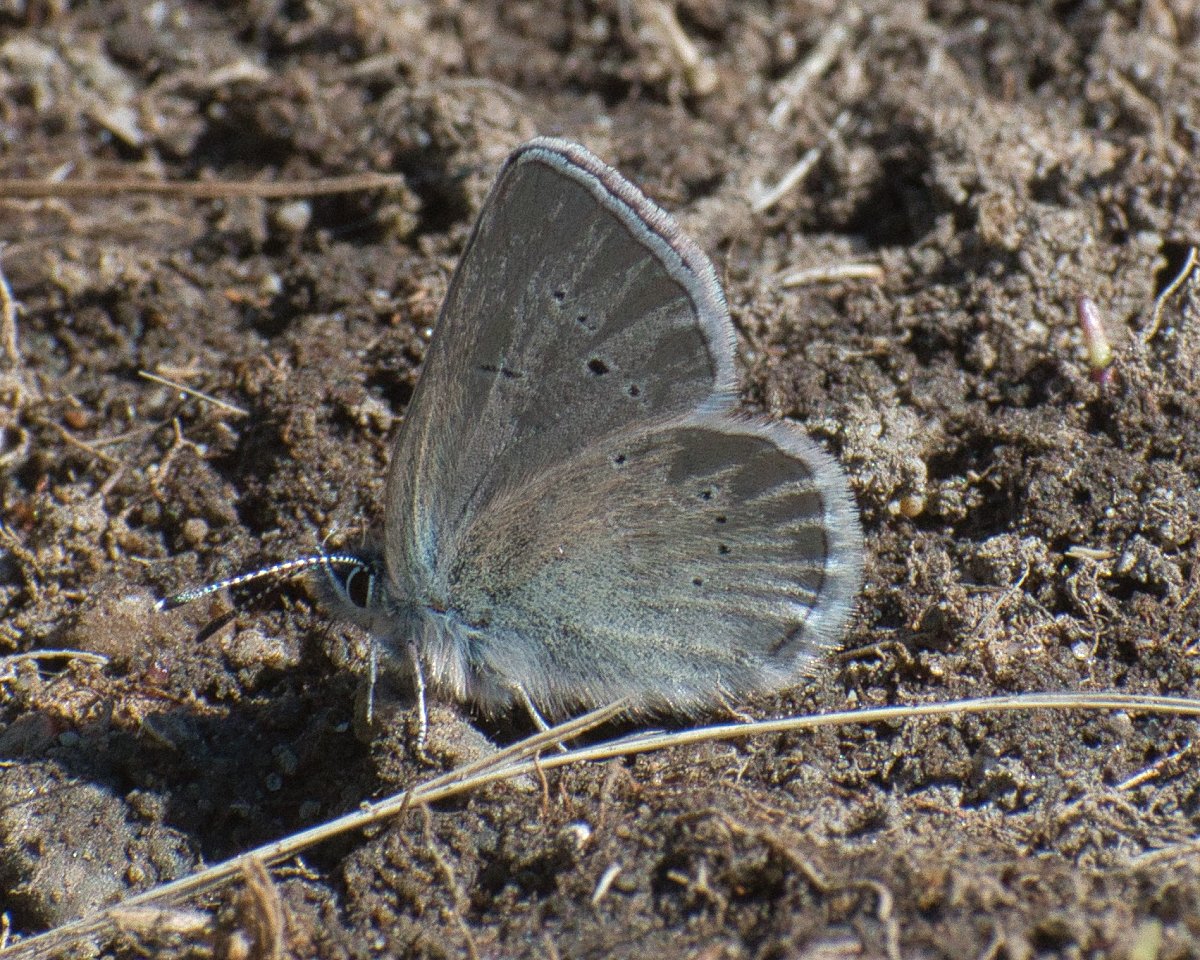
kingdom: Animalia
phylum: Arthropoda
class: Insecta
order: Lepidoptera
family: Lycaenidae
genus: Glaucopsyche
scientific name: Glaucopsyche lygdamus
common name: Silvery Blue
